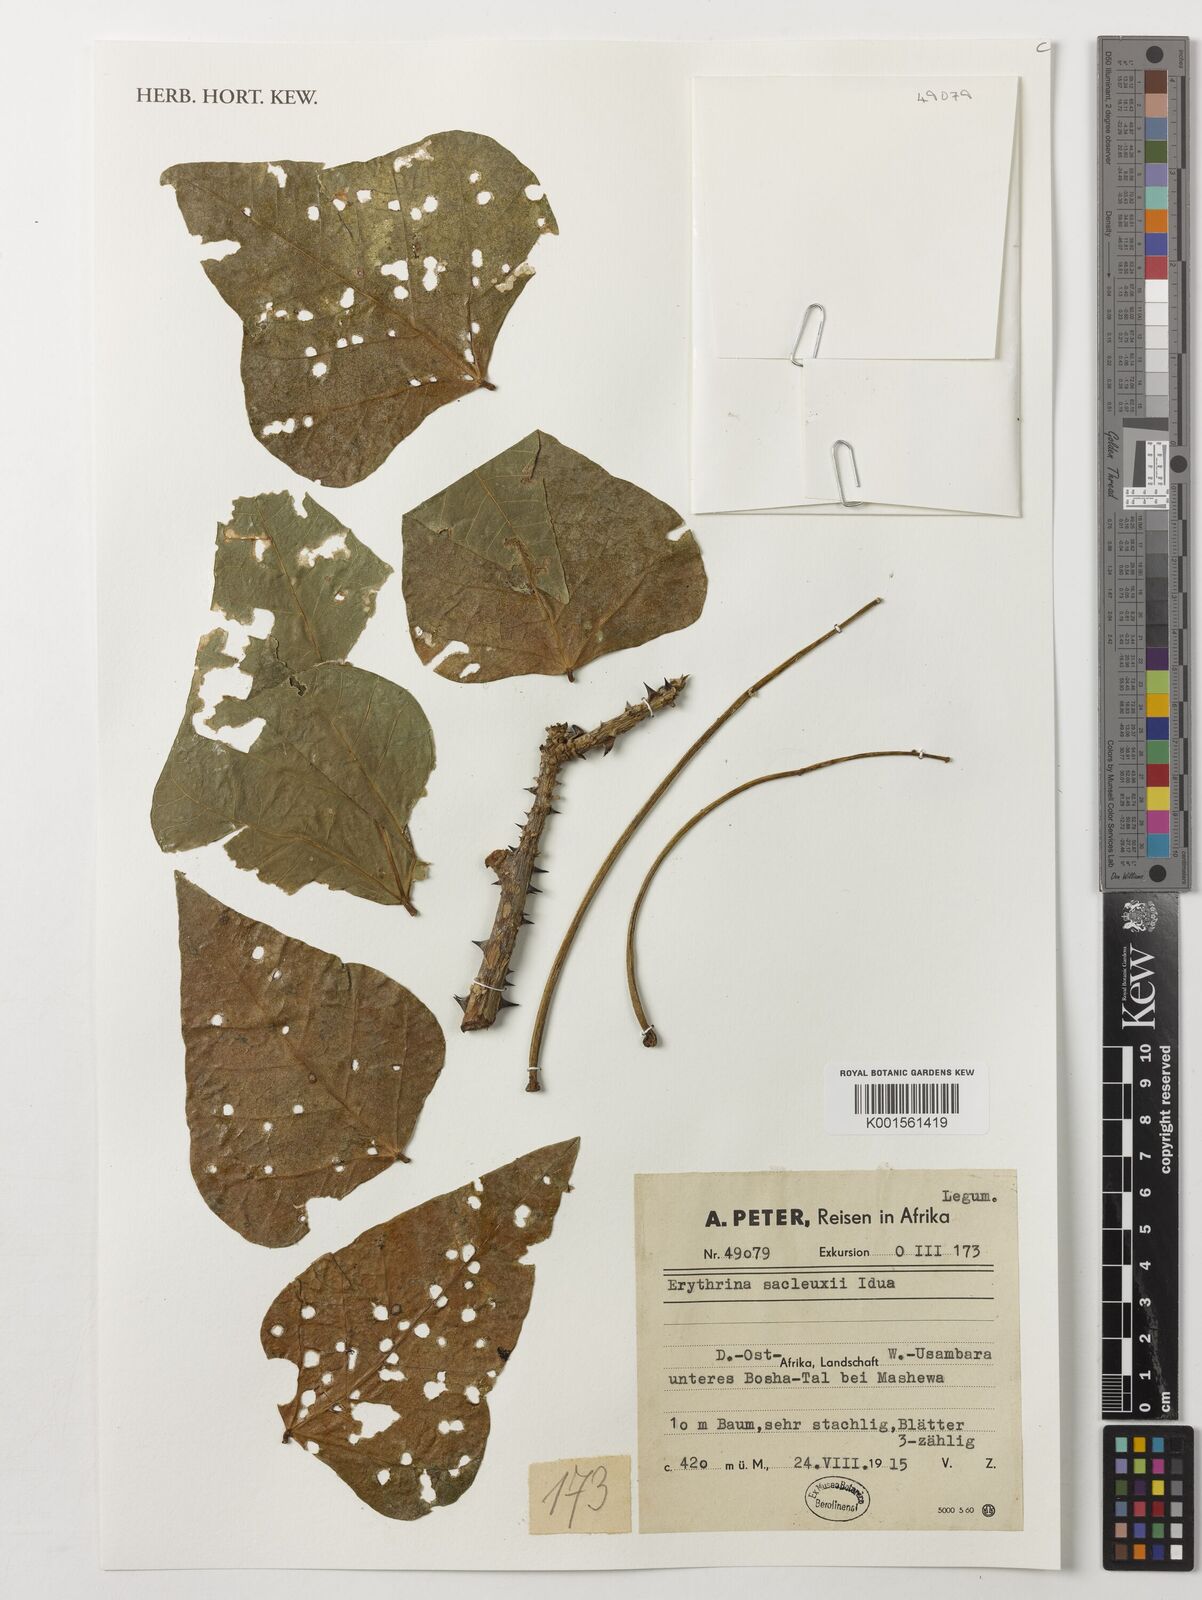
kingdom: Plantae
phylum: Tracheophyta
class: Magnoliopsida
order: Fabales
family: Fabaceae
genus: Erythrina
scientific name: Erythrina sacleuxii
